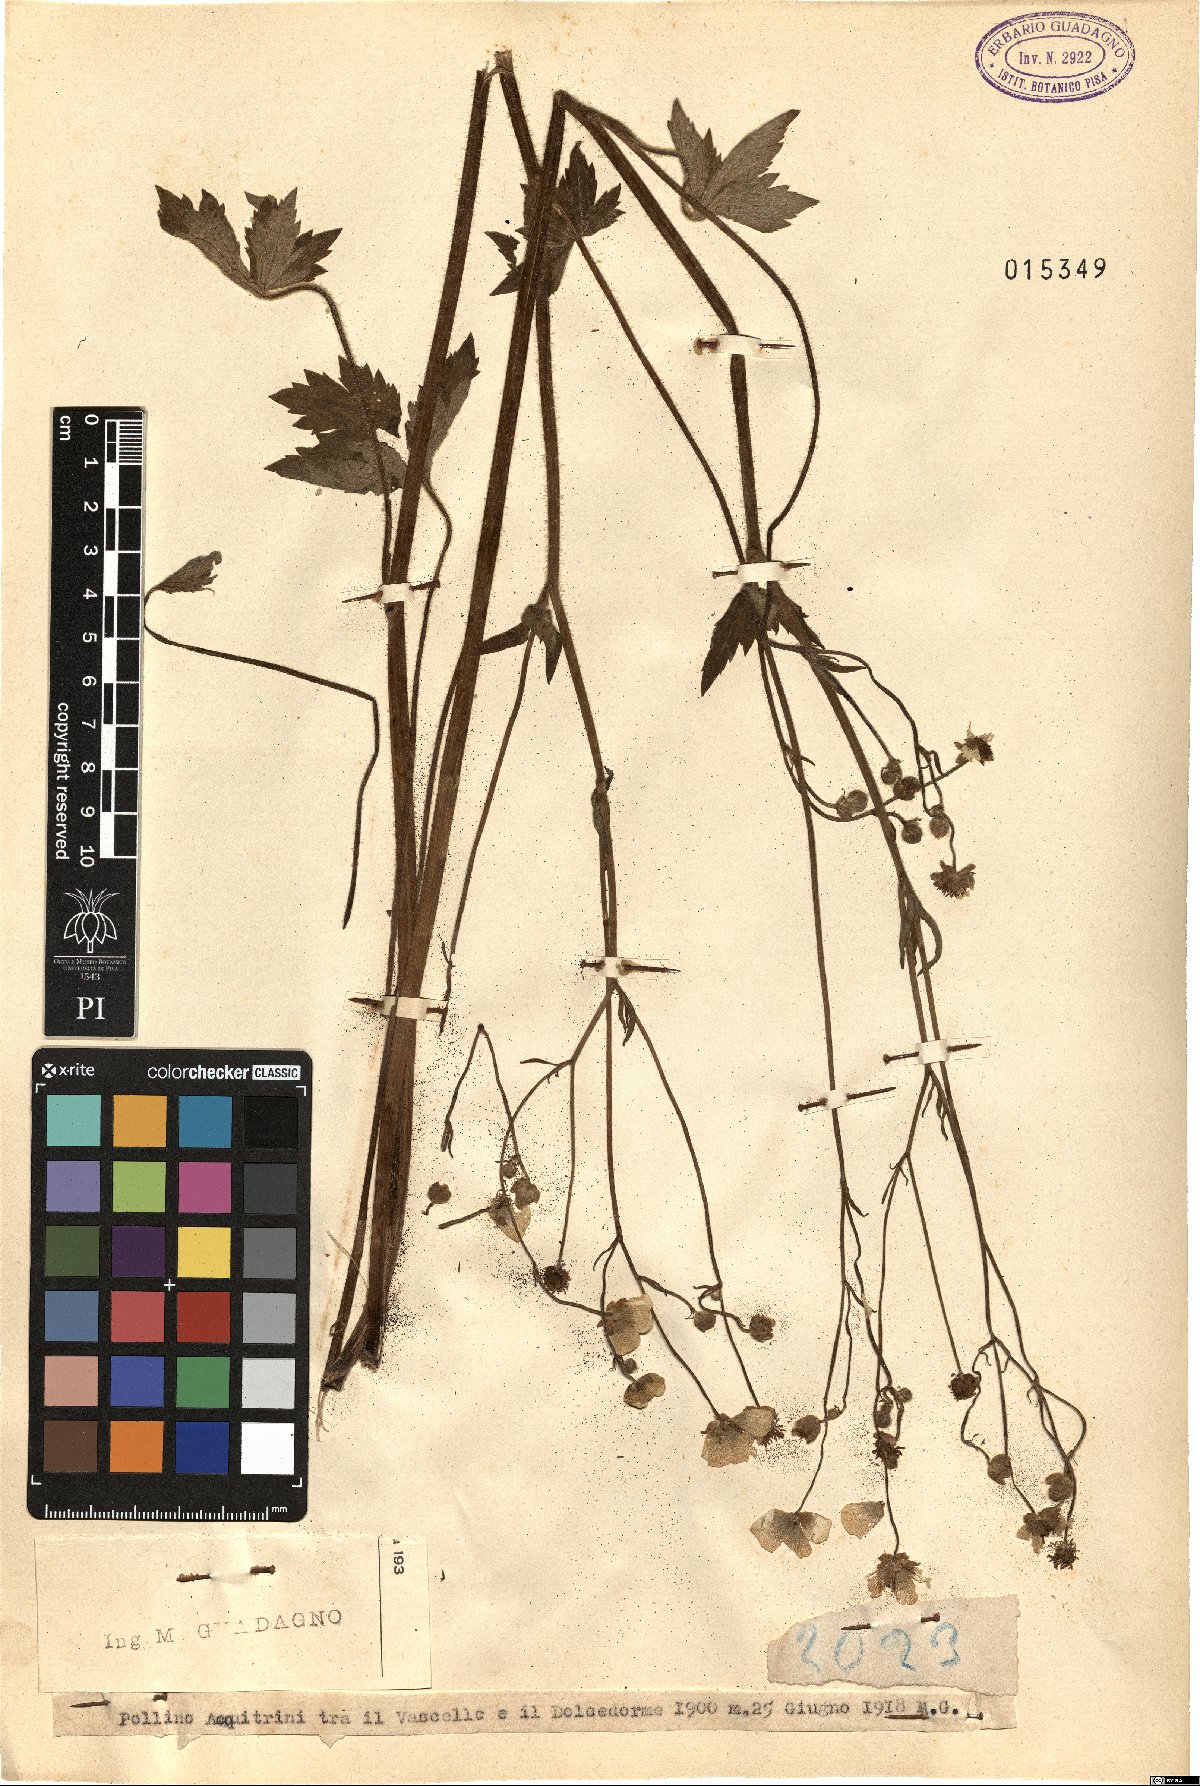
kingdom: Plantae
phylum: Tracheophyta
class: Magnoliopsida
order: Ranunculales
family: Ranunculaceae
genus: Ranunculus
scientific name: Ranunculus lanuginosus
